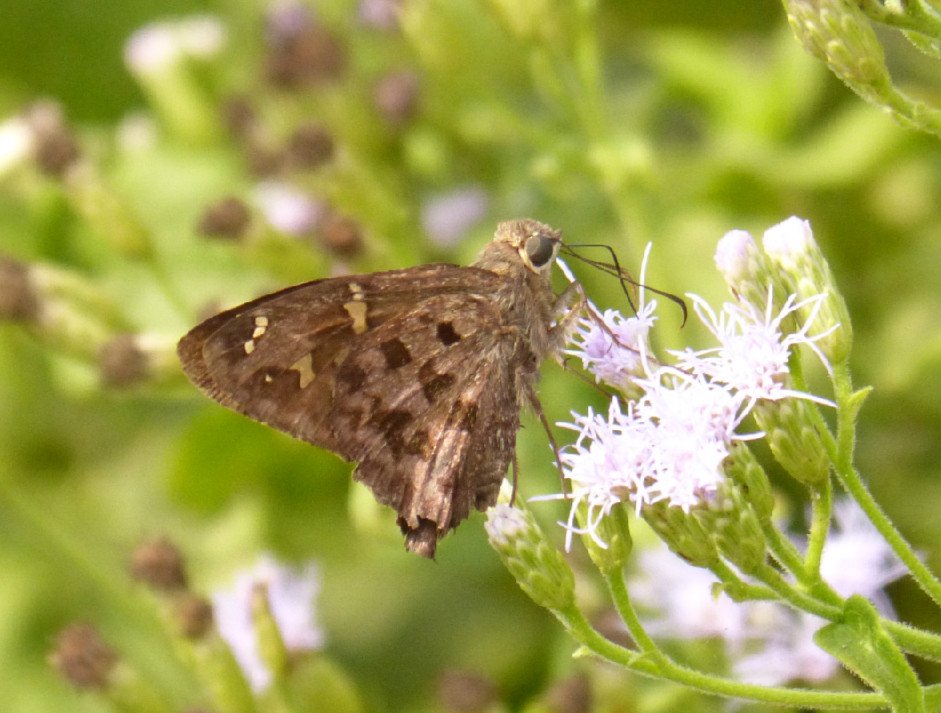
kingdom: Animalia
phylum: Arthropoda
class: Insecta
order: Lepidoptera
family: Hesperiidae
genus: Urbanus
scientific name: Urbanus dorantes
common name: Dorantes Longtail
